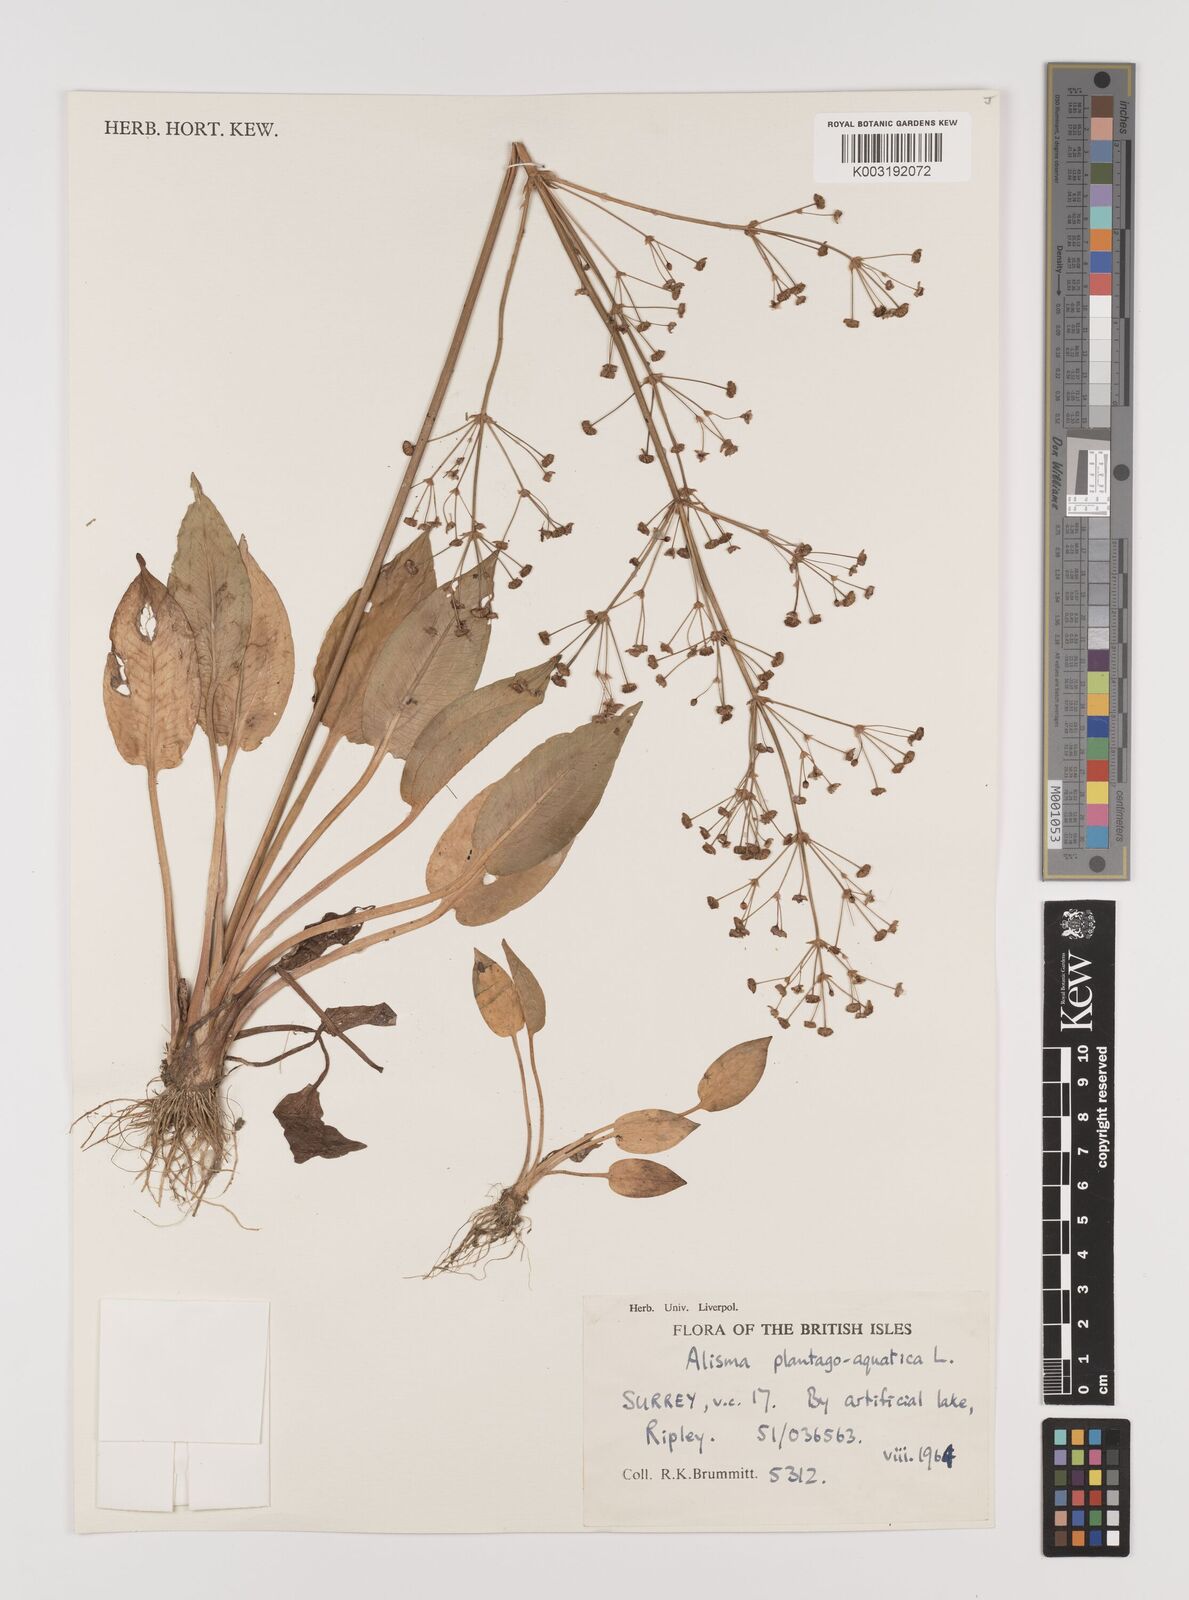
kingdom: Plantae
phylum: Tracheophyta
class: Liliopsida
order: Alismatales
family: Alismataceae
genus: Alisma
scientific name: Alisma plantago-aquatica
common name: Water-plantain
